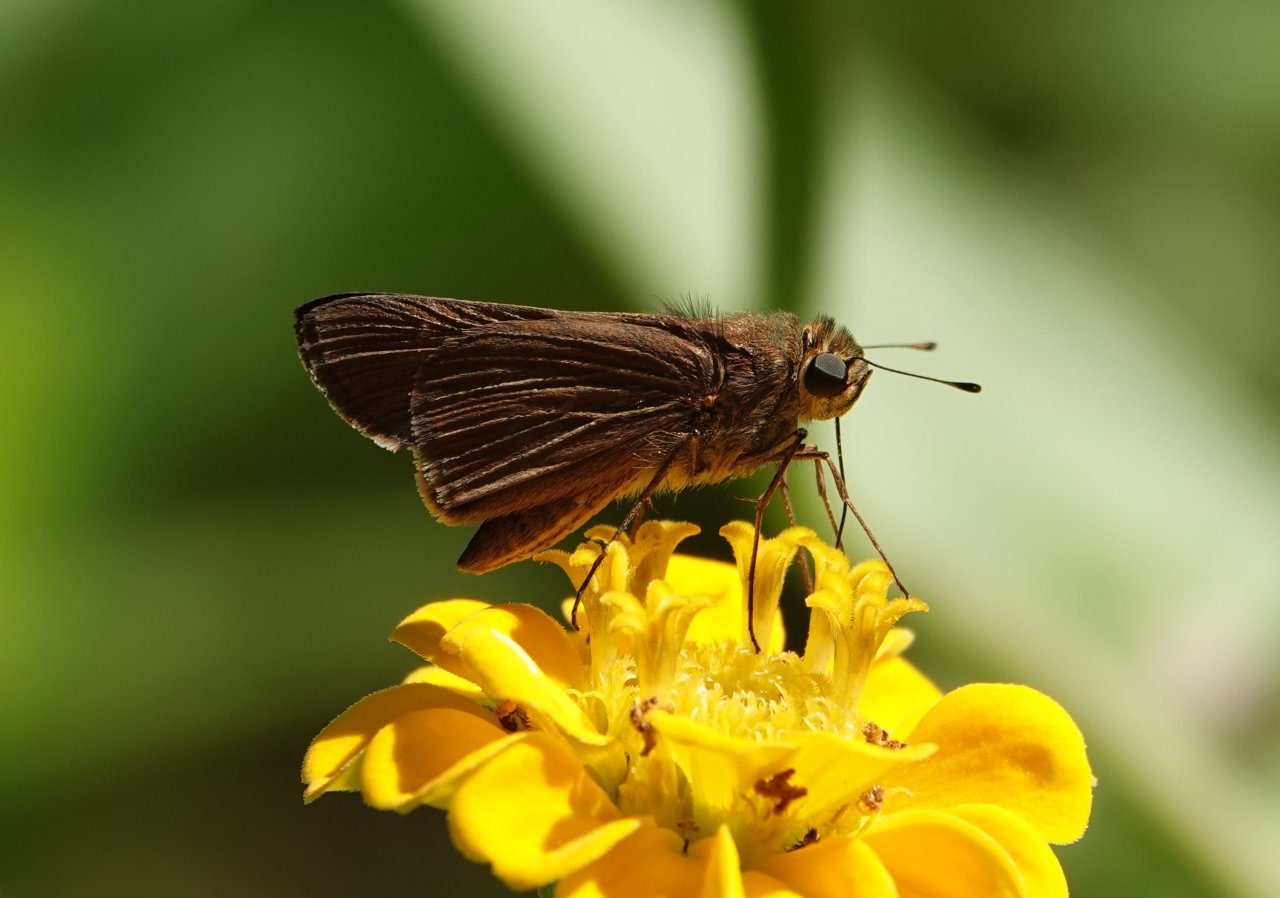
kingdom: Animalia
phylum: Arthropoda
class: Insecta
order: Lepidoptera
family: Hesperiidae
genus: Panoquina
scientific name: Panoquina ocola
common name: Ocola Skipper
